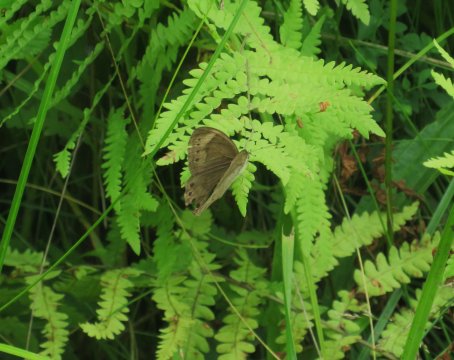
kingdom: Animalia
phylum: Arthropoda
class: Insecta
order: Lepidoptera
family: Nymphalidae
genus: Lethe
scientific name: Lethe eurydice
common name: Eyed Brown
